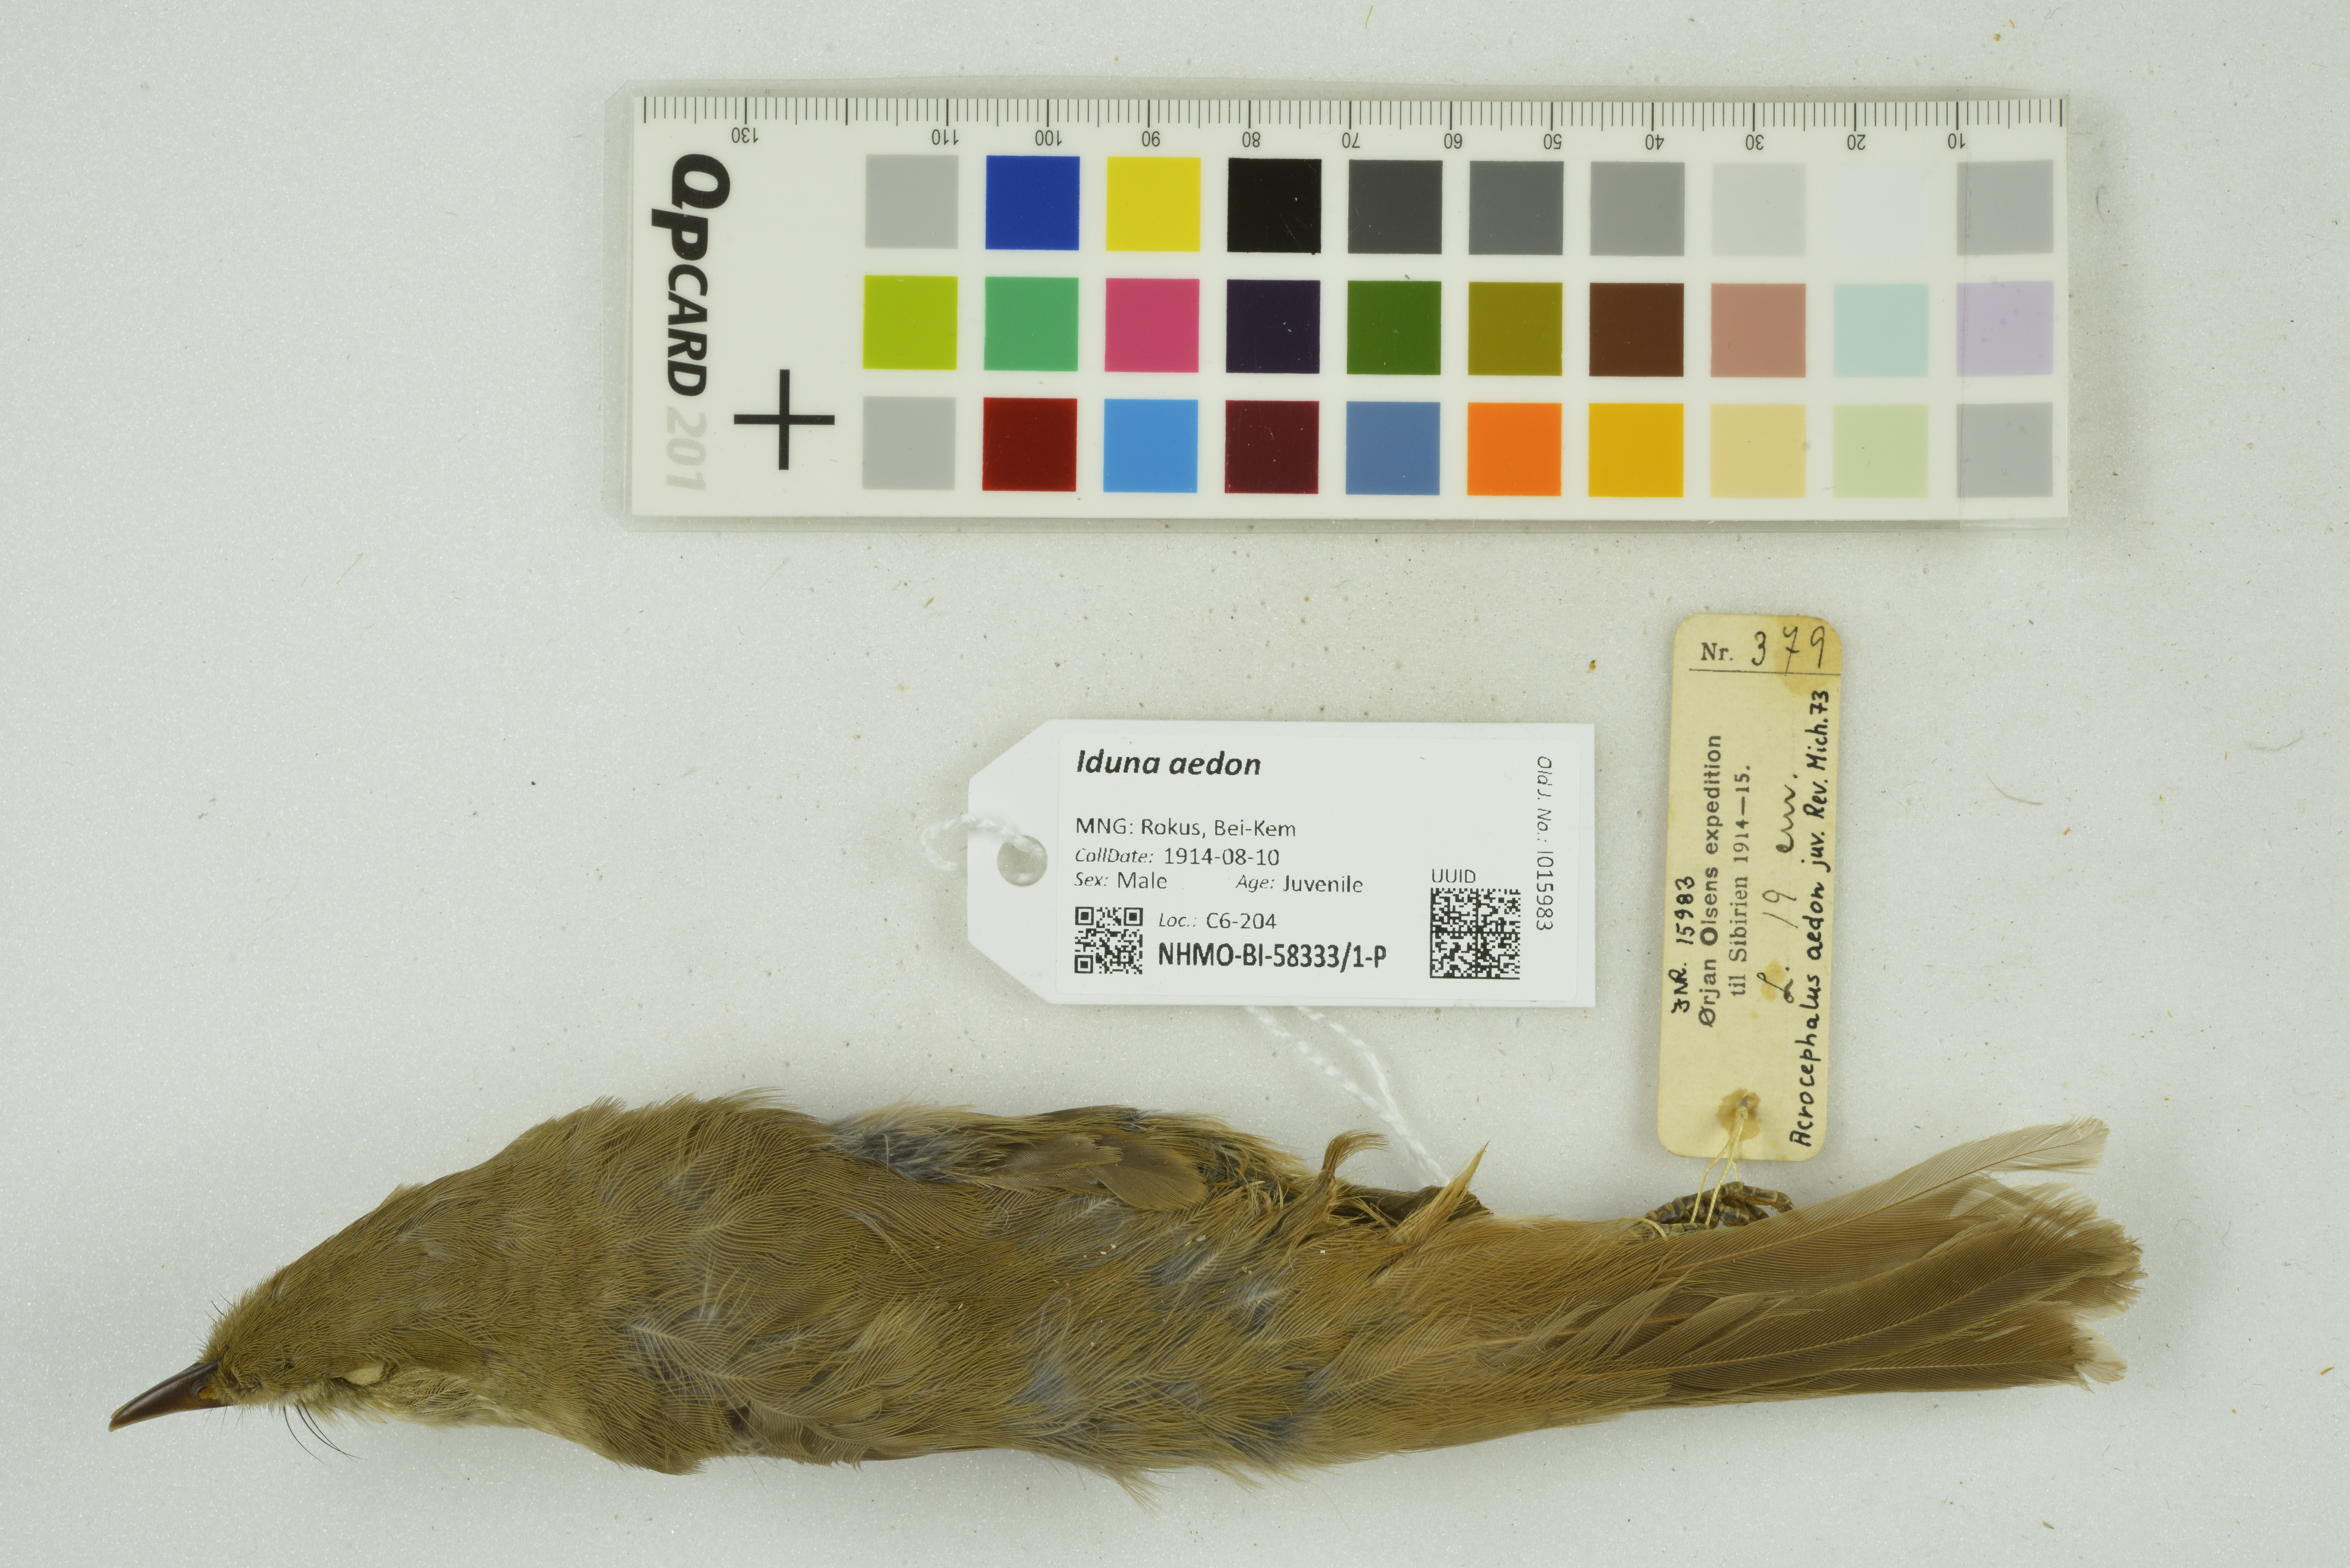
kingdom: Animalia
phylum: Chordata
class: Aves
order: Passeriformes
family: Acrocephalidae
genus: Iduna
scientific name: Iduna aedon
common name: Thick-billed warbler
